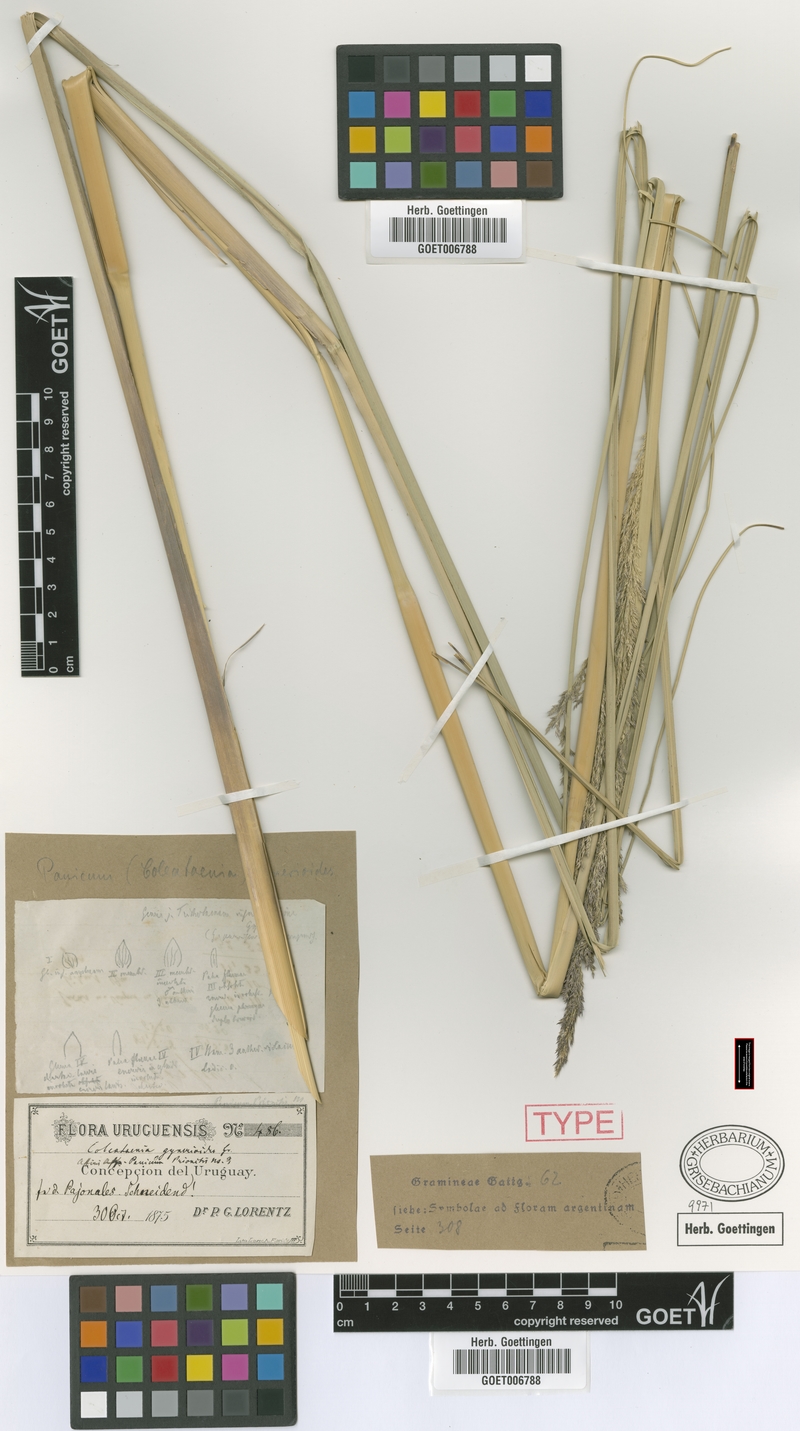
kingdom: Plantae
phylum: Tracheophyta
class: Liliopsida
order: Poales
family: Poaceae
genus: Coleataenia
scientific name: Coleataenia prionitis
